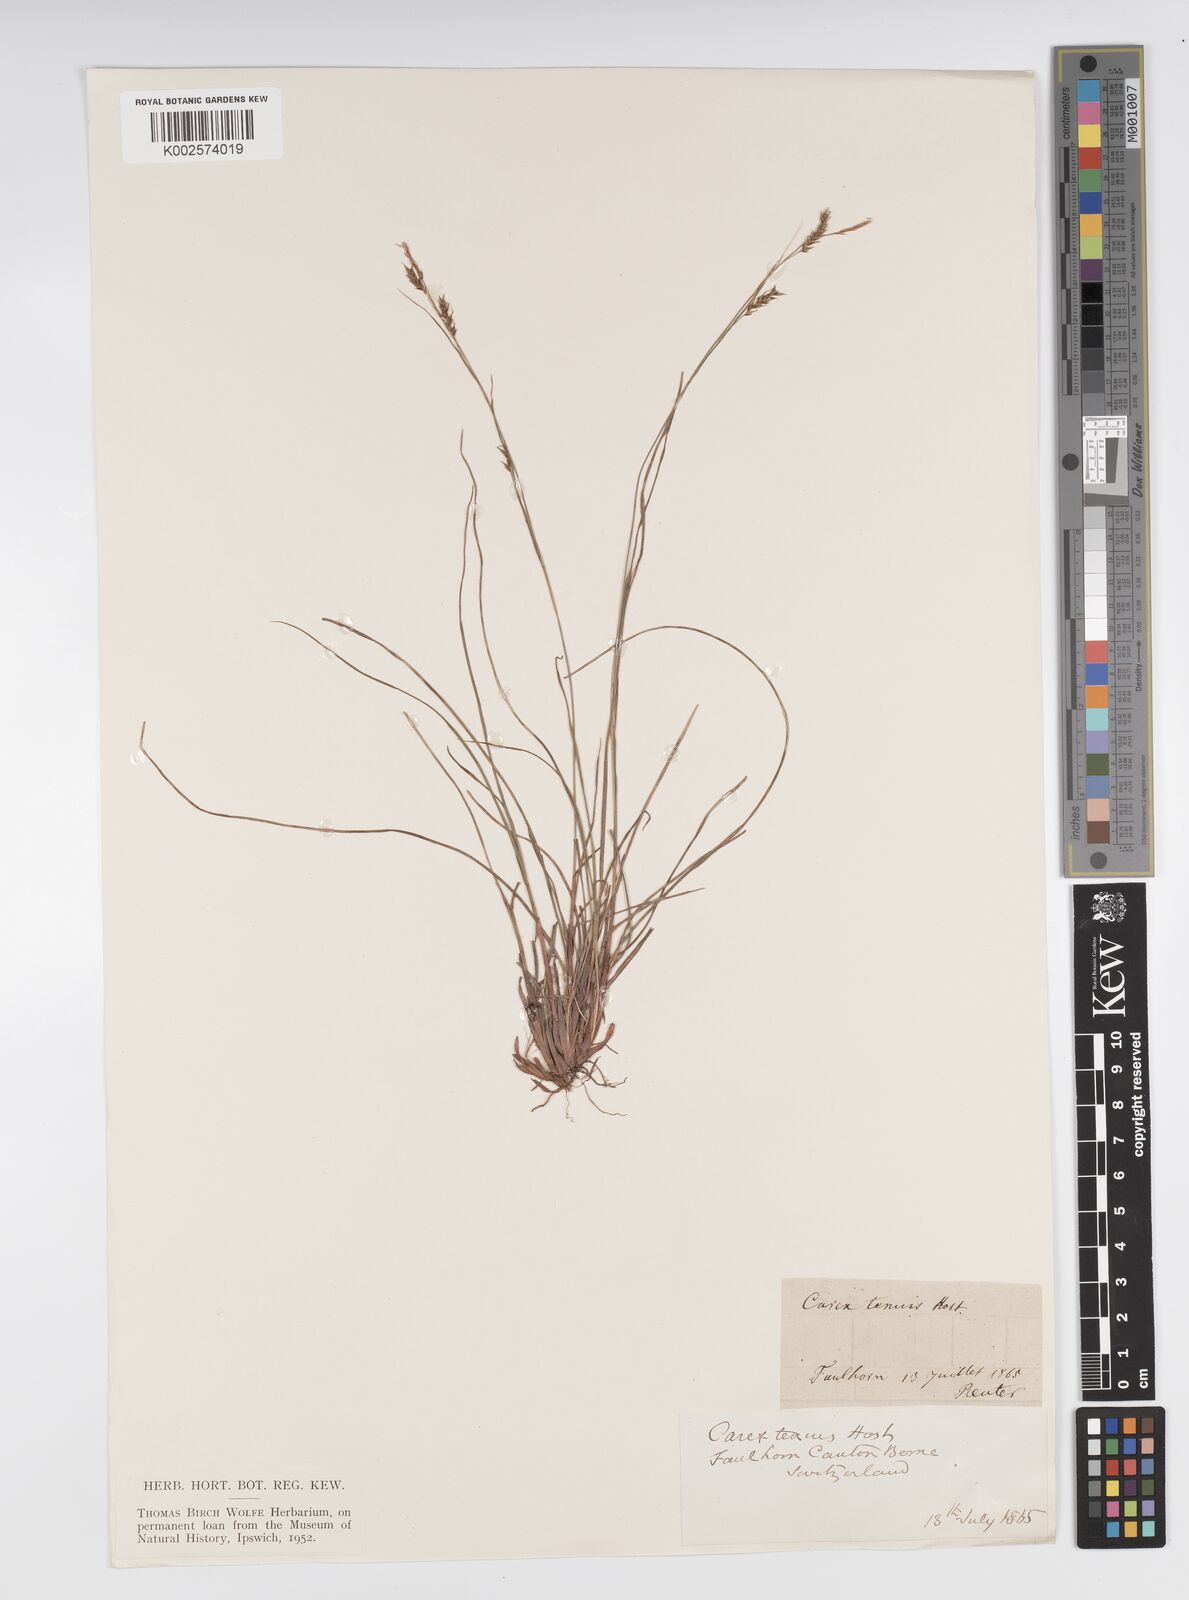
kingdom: Plantae
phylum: Tracheophyta
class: Liliopsida
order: Poales
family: Cyperaceae
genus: Carex
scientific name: Carex brachystachys
